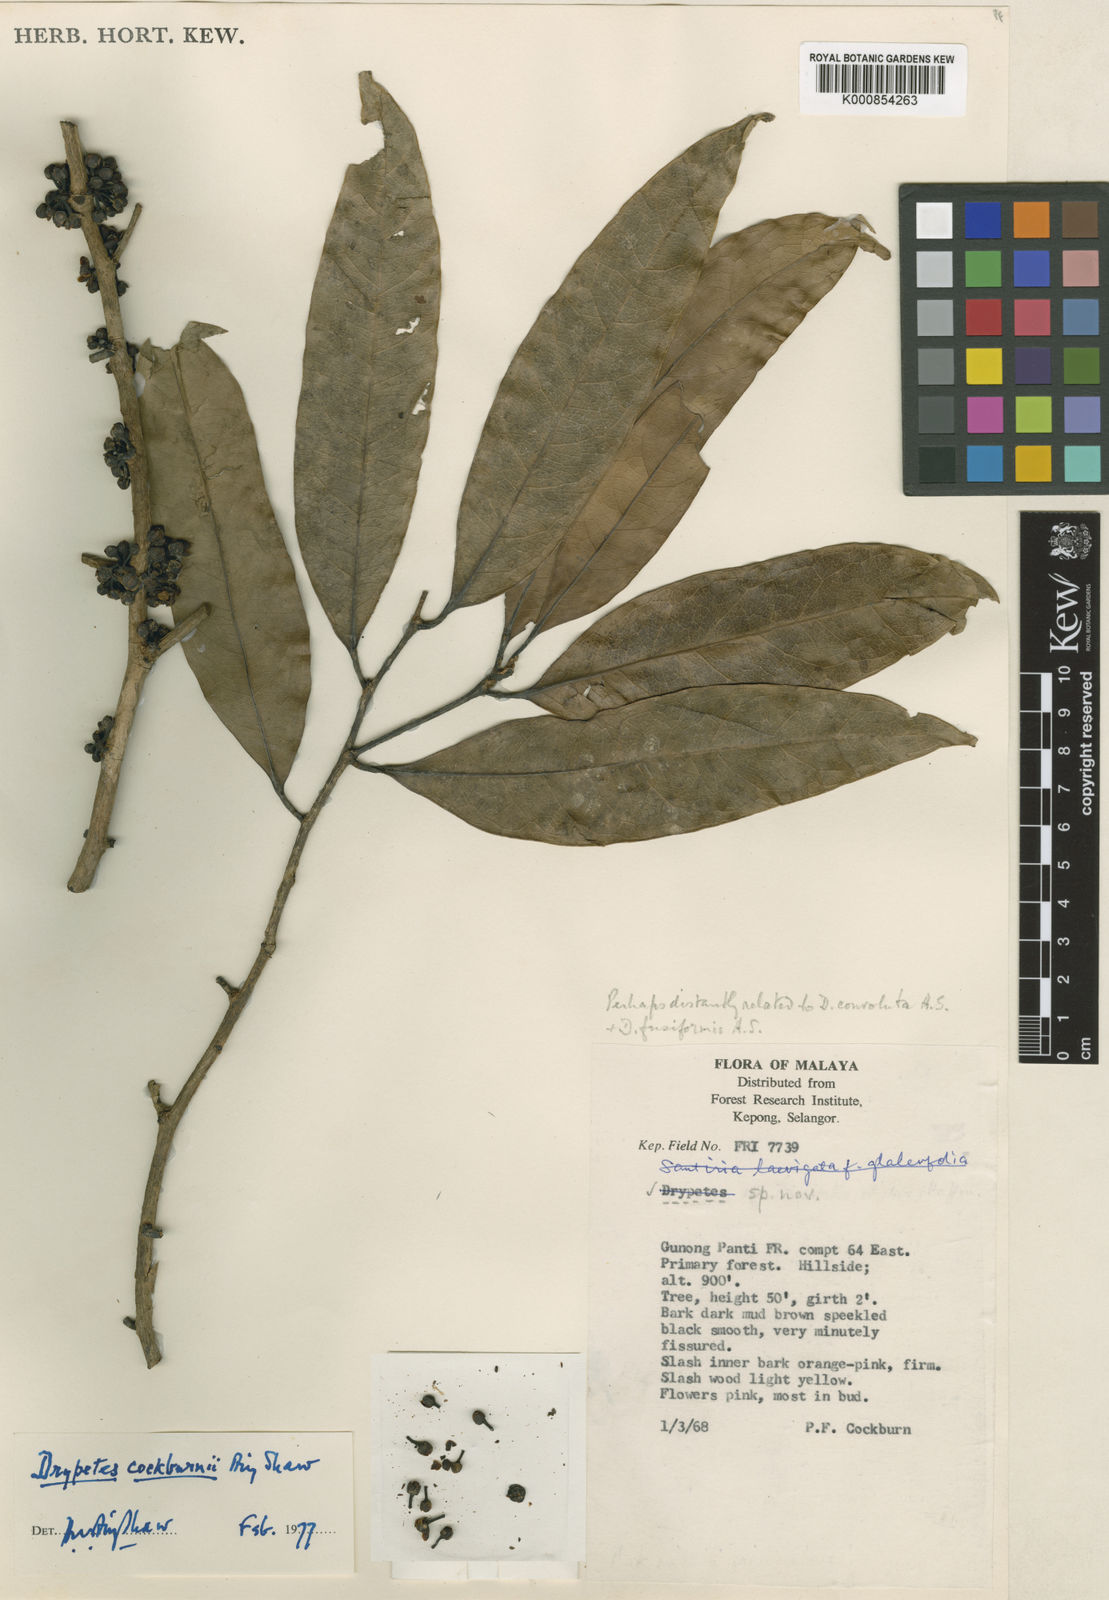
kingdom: Plantae
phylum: Tracheophyta
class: Magnoliopsida
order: Malpighiales
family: Putranjivaceae
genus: Drypetes
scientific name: Drypetes cockburnii
